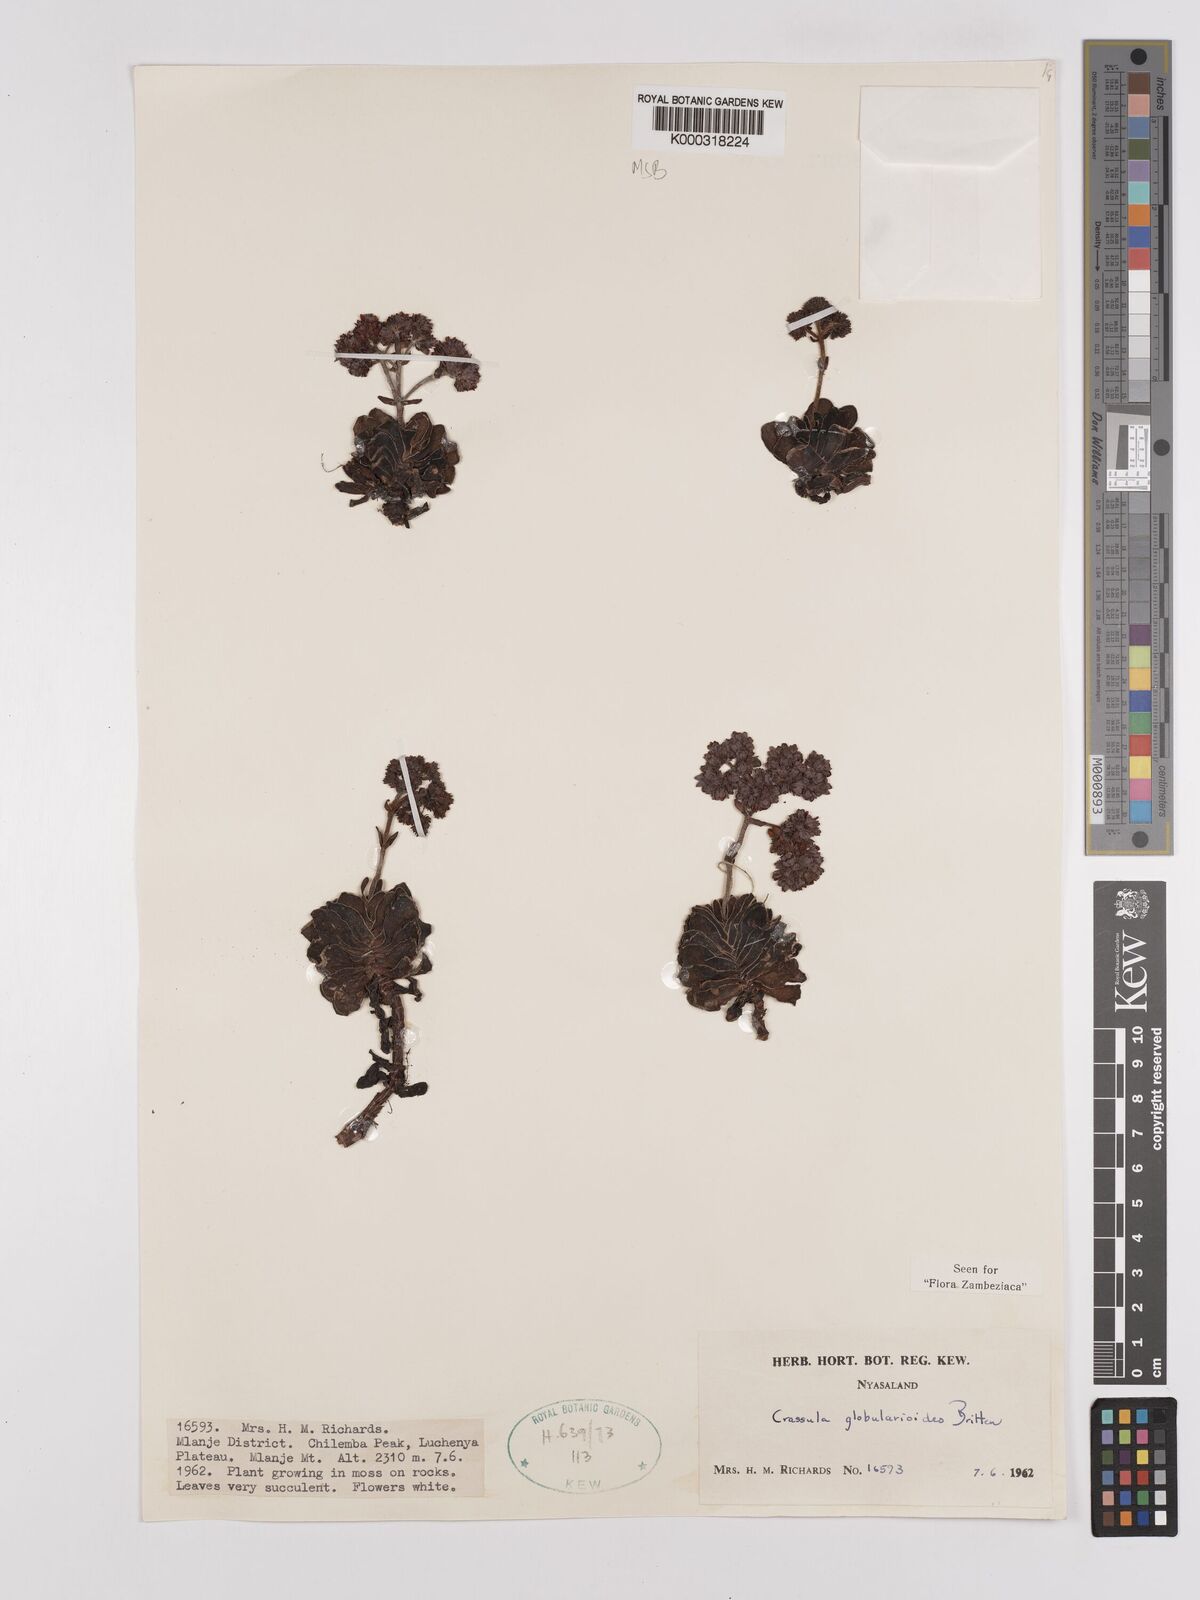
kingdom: Plantae
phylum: Tracheophyta
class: Magnoliopsida
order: Saxifragales
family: Crassulaceae
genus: Crassula
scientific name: Crassula globularioides
